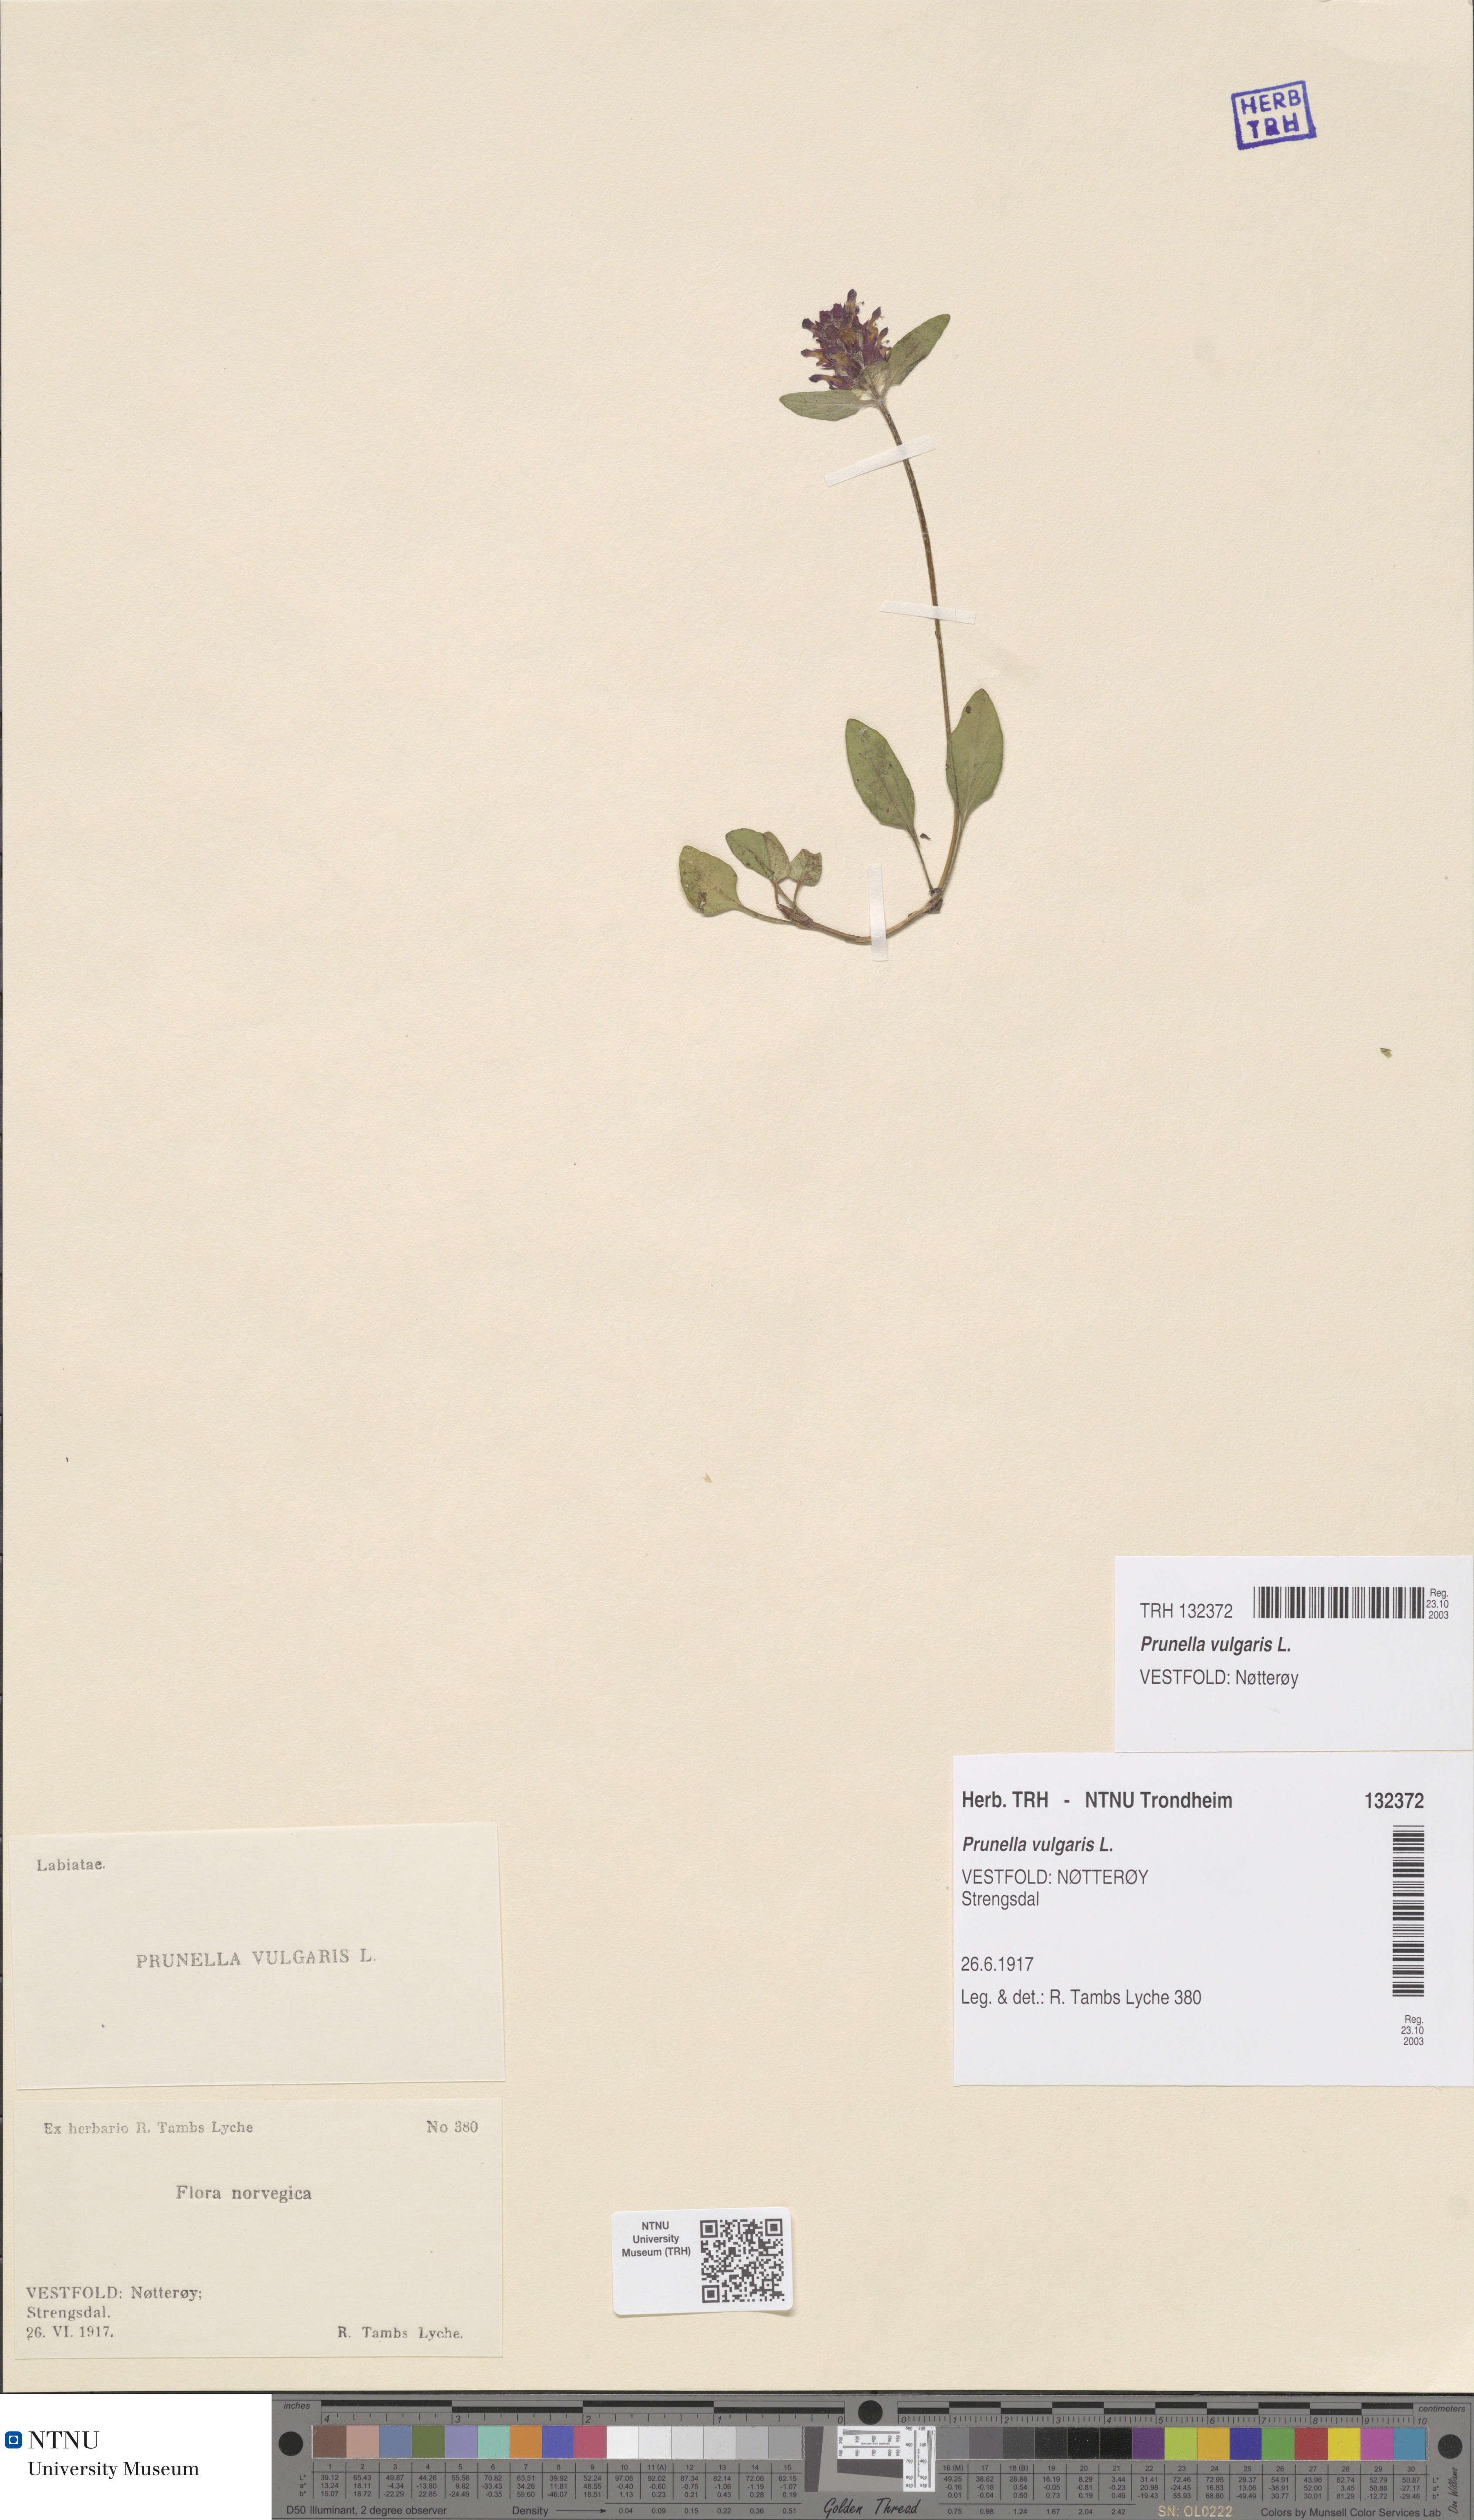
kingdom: Plantae
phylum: Tracheophyta
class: Magnoliopsida
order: Lamiales
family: Lamiaceae
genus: Prunella
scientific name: Prunella vulgaris
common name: Heal-all
